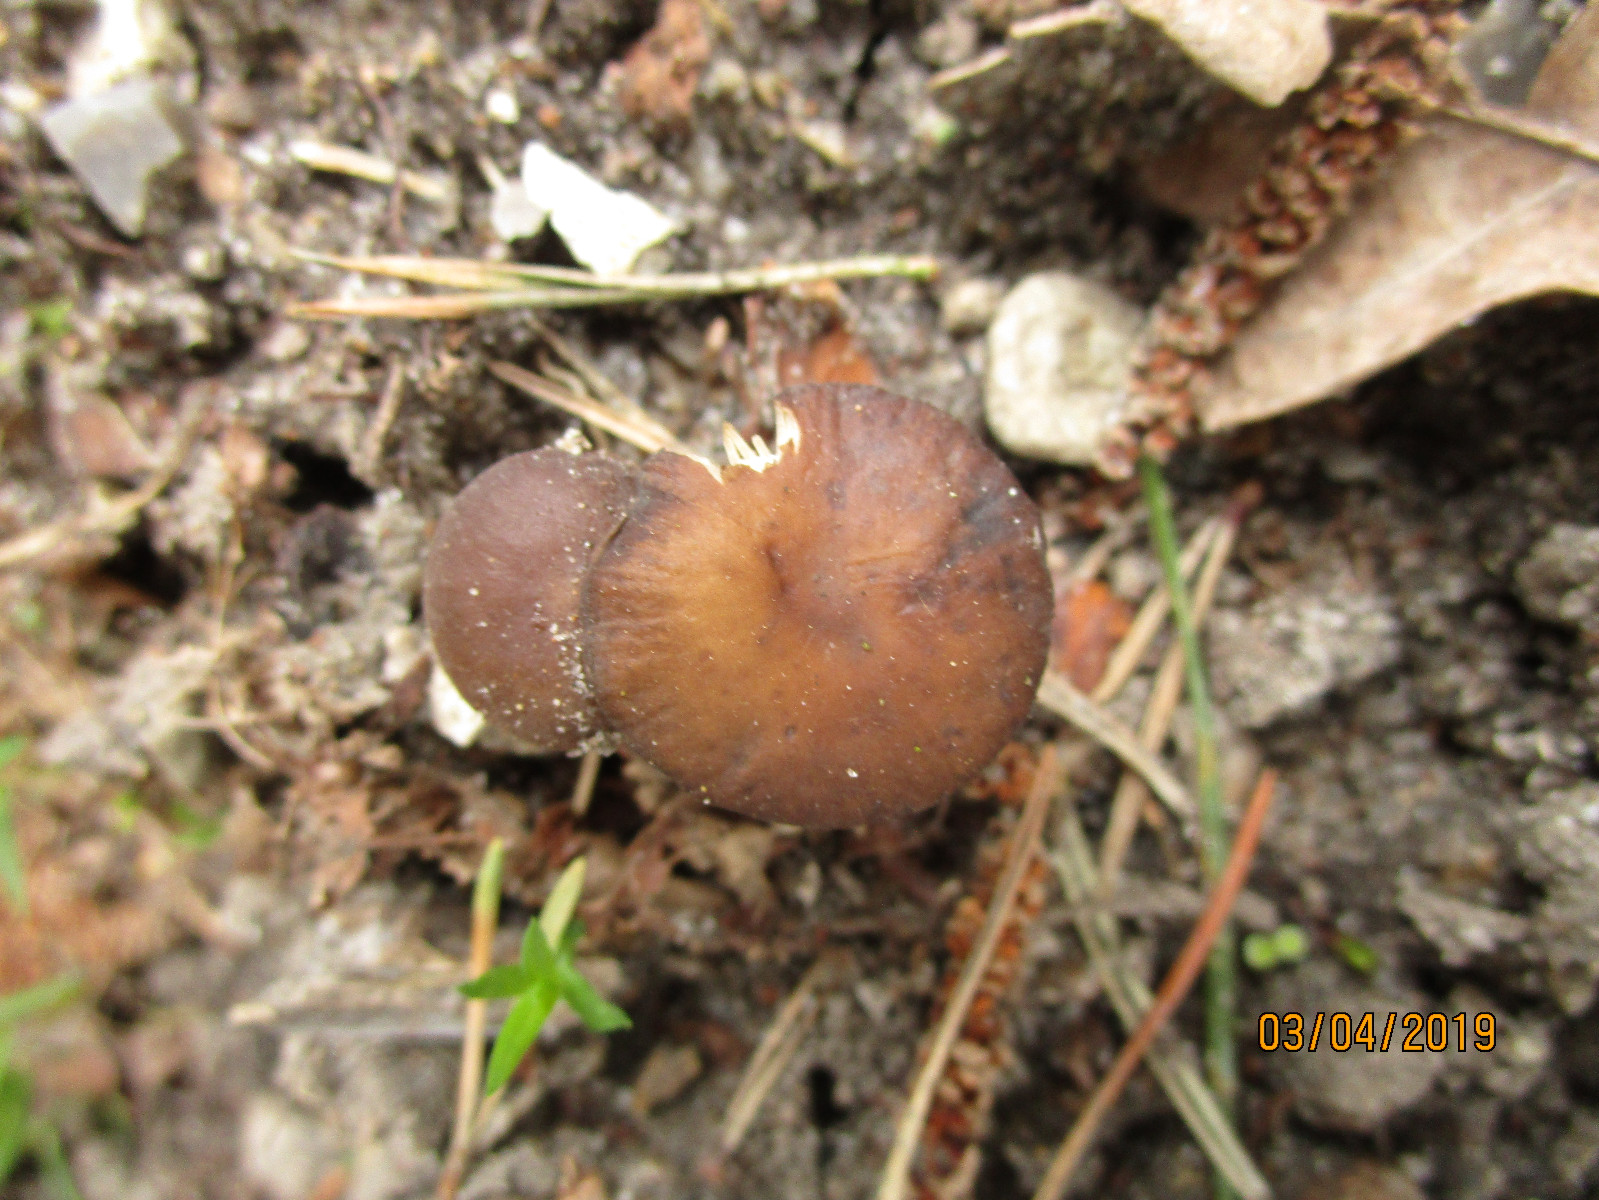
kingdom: Fungi
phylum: Basidiomycota
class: Agaricomycetes
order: Agaricales
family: Physalacriaceae
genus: Strobilurus
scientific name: Strobilurus
